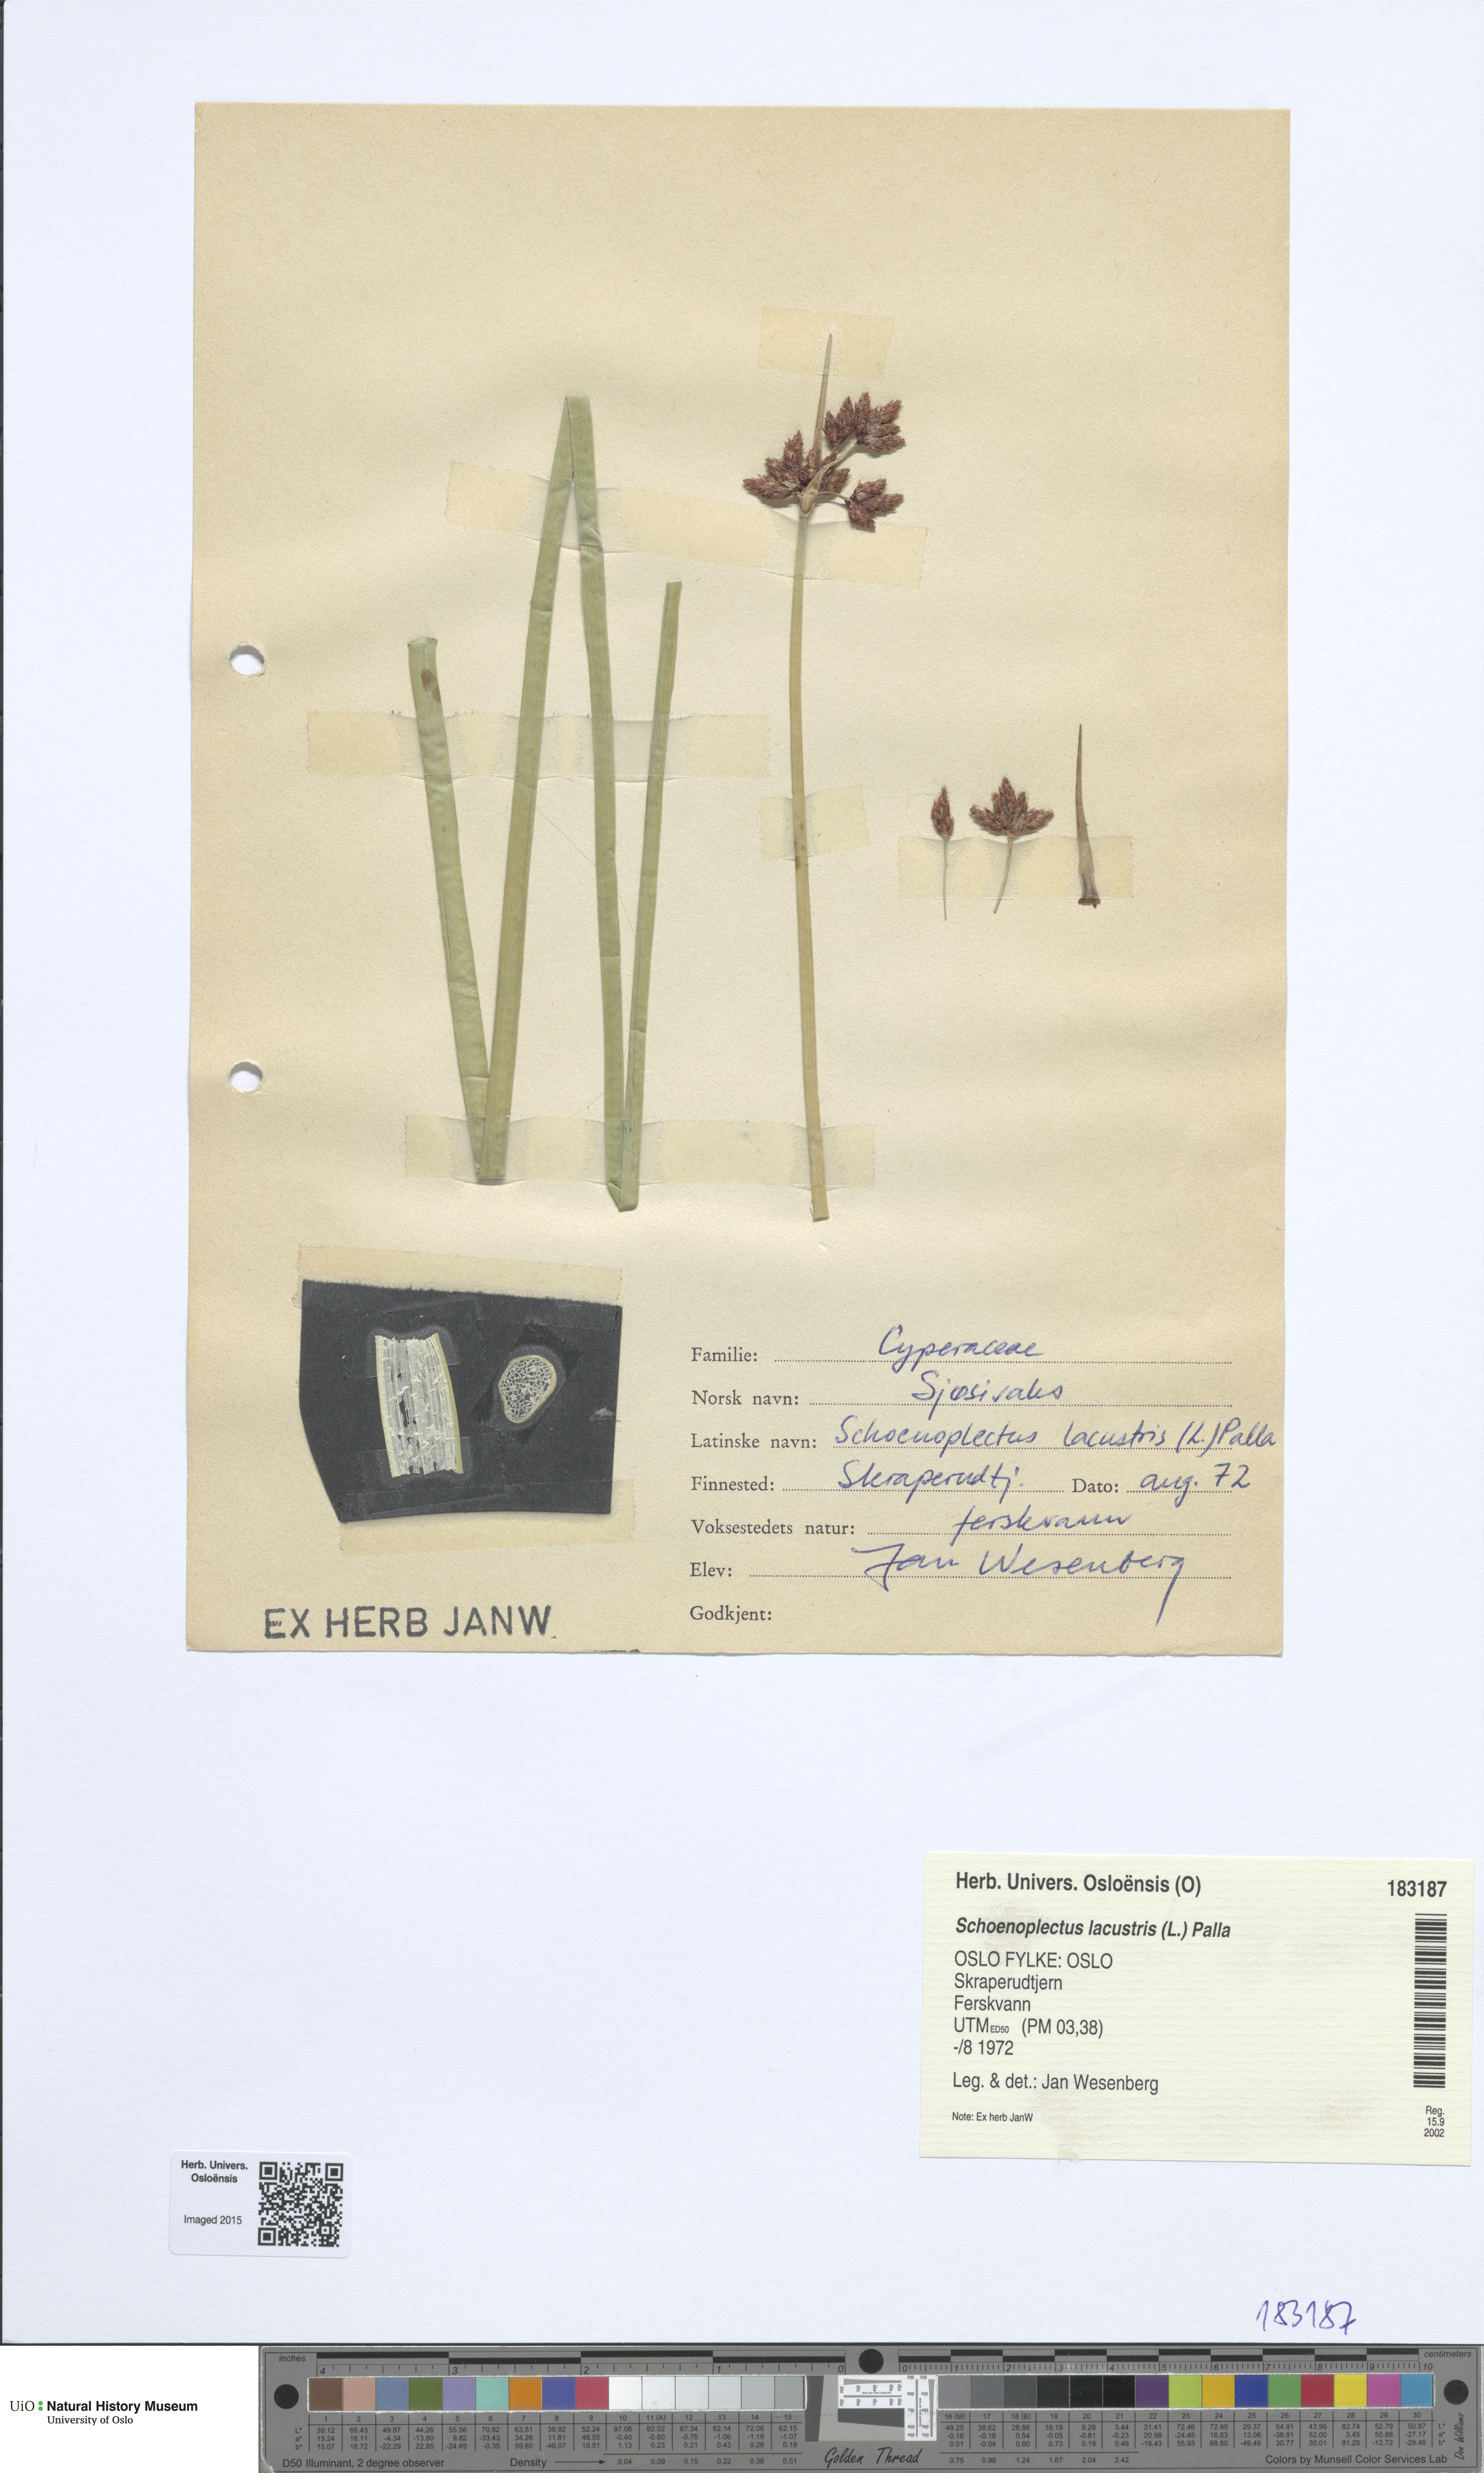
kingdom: Plantae
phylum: Tracheophyta
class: Liliopsida
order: Poales
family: Cyperaceae
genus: Schoenoplectus
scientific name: Schoenoplectus lacustris
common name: Common club-rush
